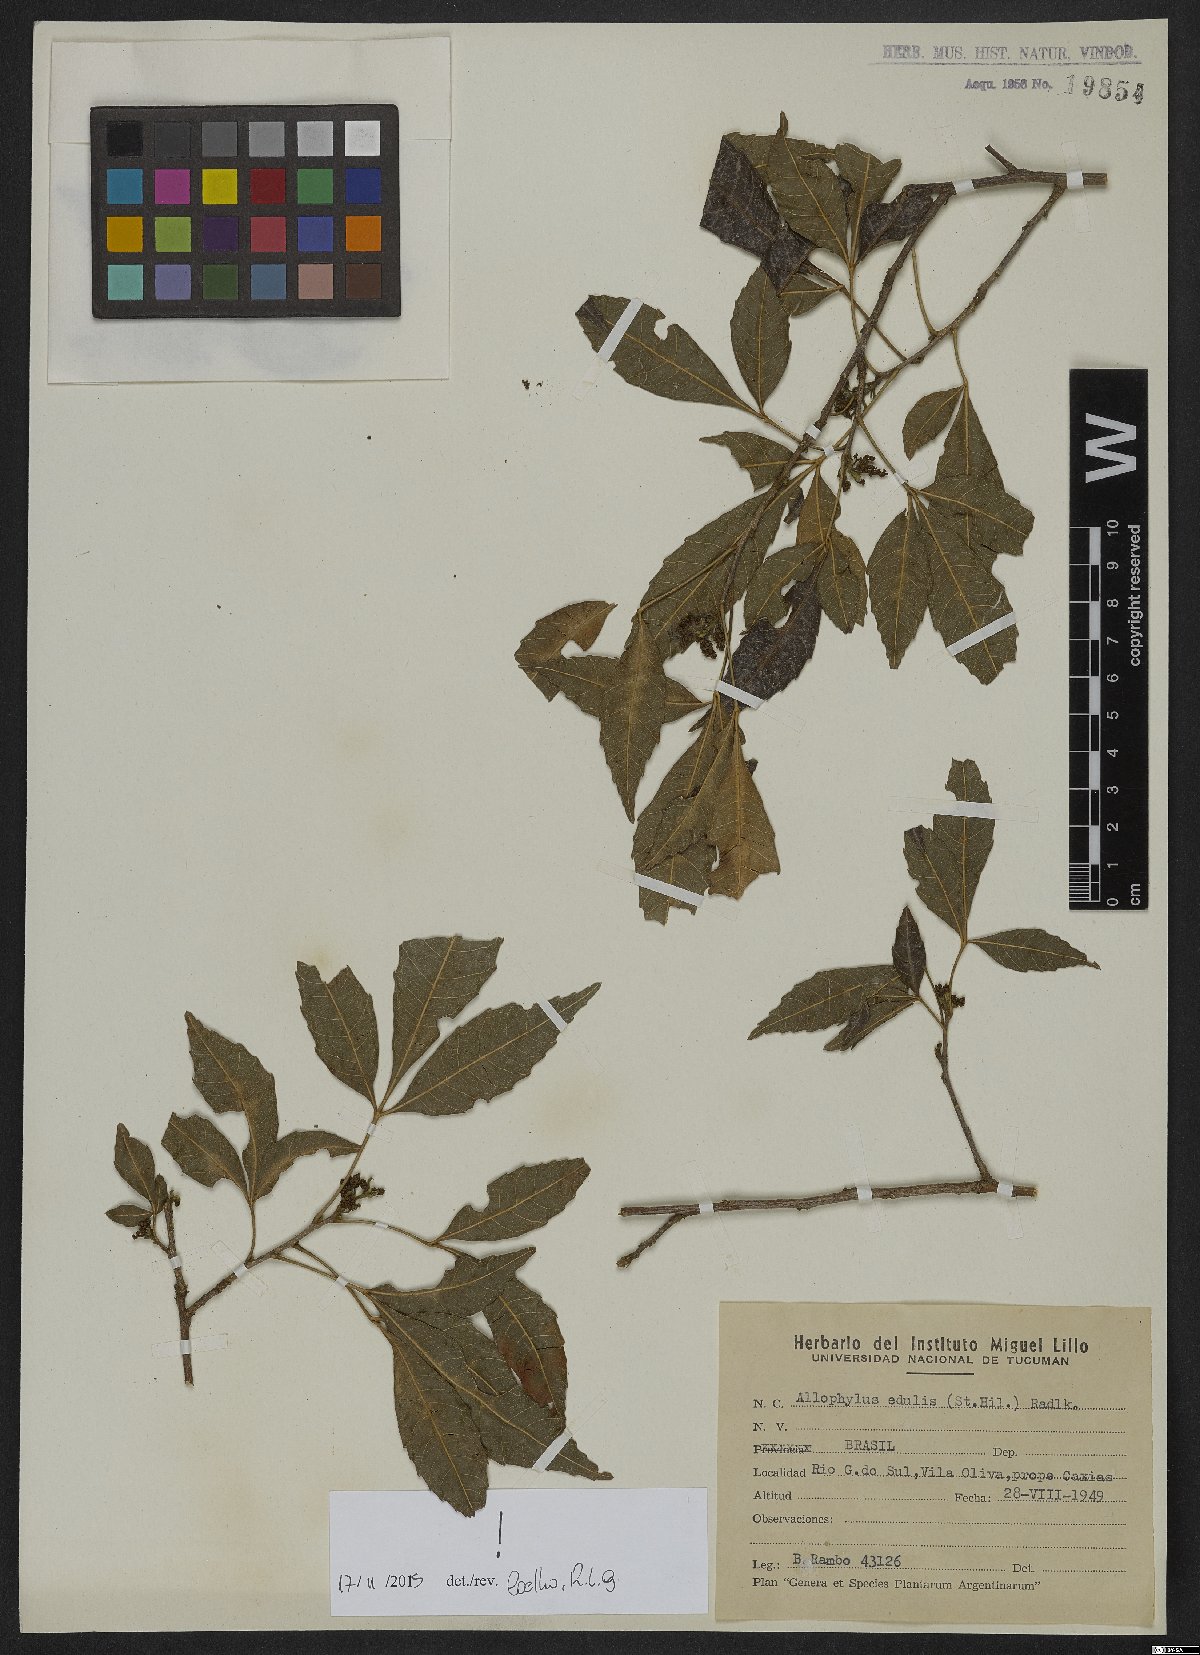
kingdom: Plantae
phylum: Tracheophyta
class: Magnoliopsida
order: Sapindales
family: Sapindaceae
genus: Allophylus
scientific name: Allophylus edulis
